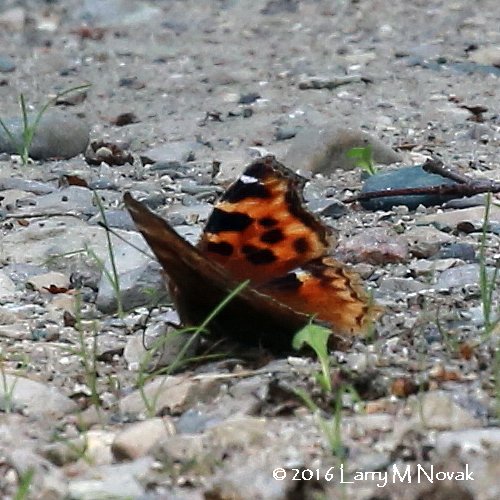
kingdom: Animalia
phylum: Arthropoda
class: Insecta
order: Lepidoptera
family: Nymphalidae
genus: Polygonia
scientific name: Polygonia vaualbum
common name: Compton Tortoiseshell
